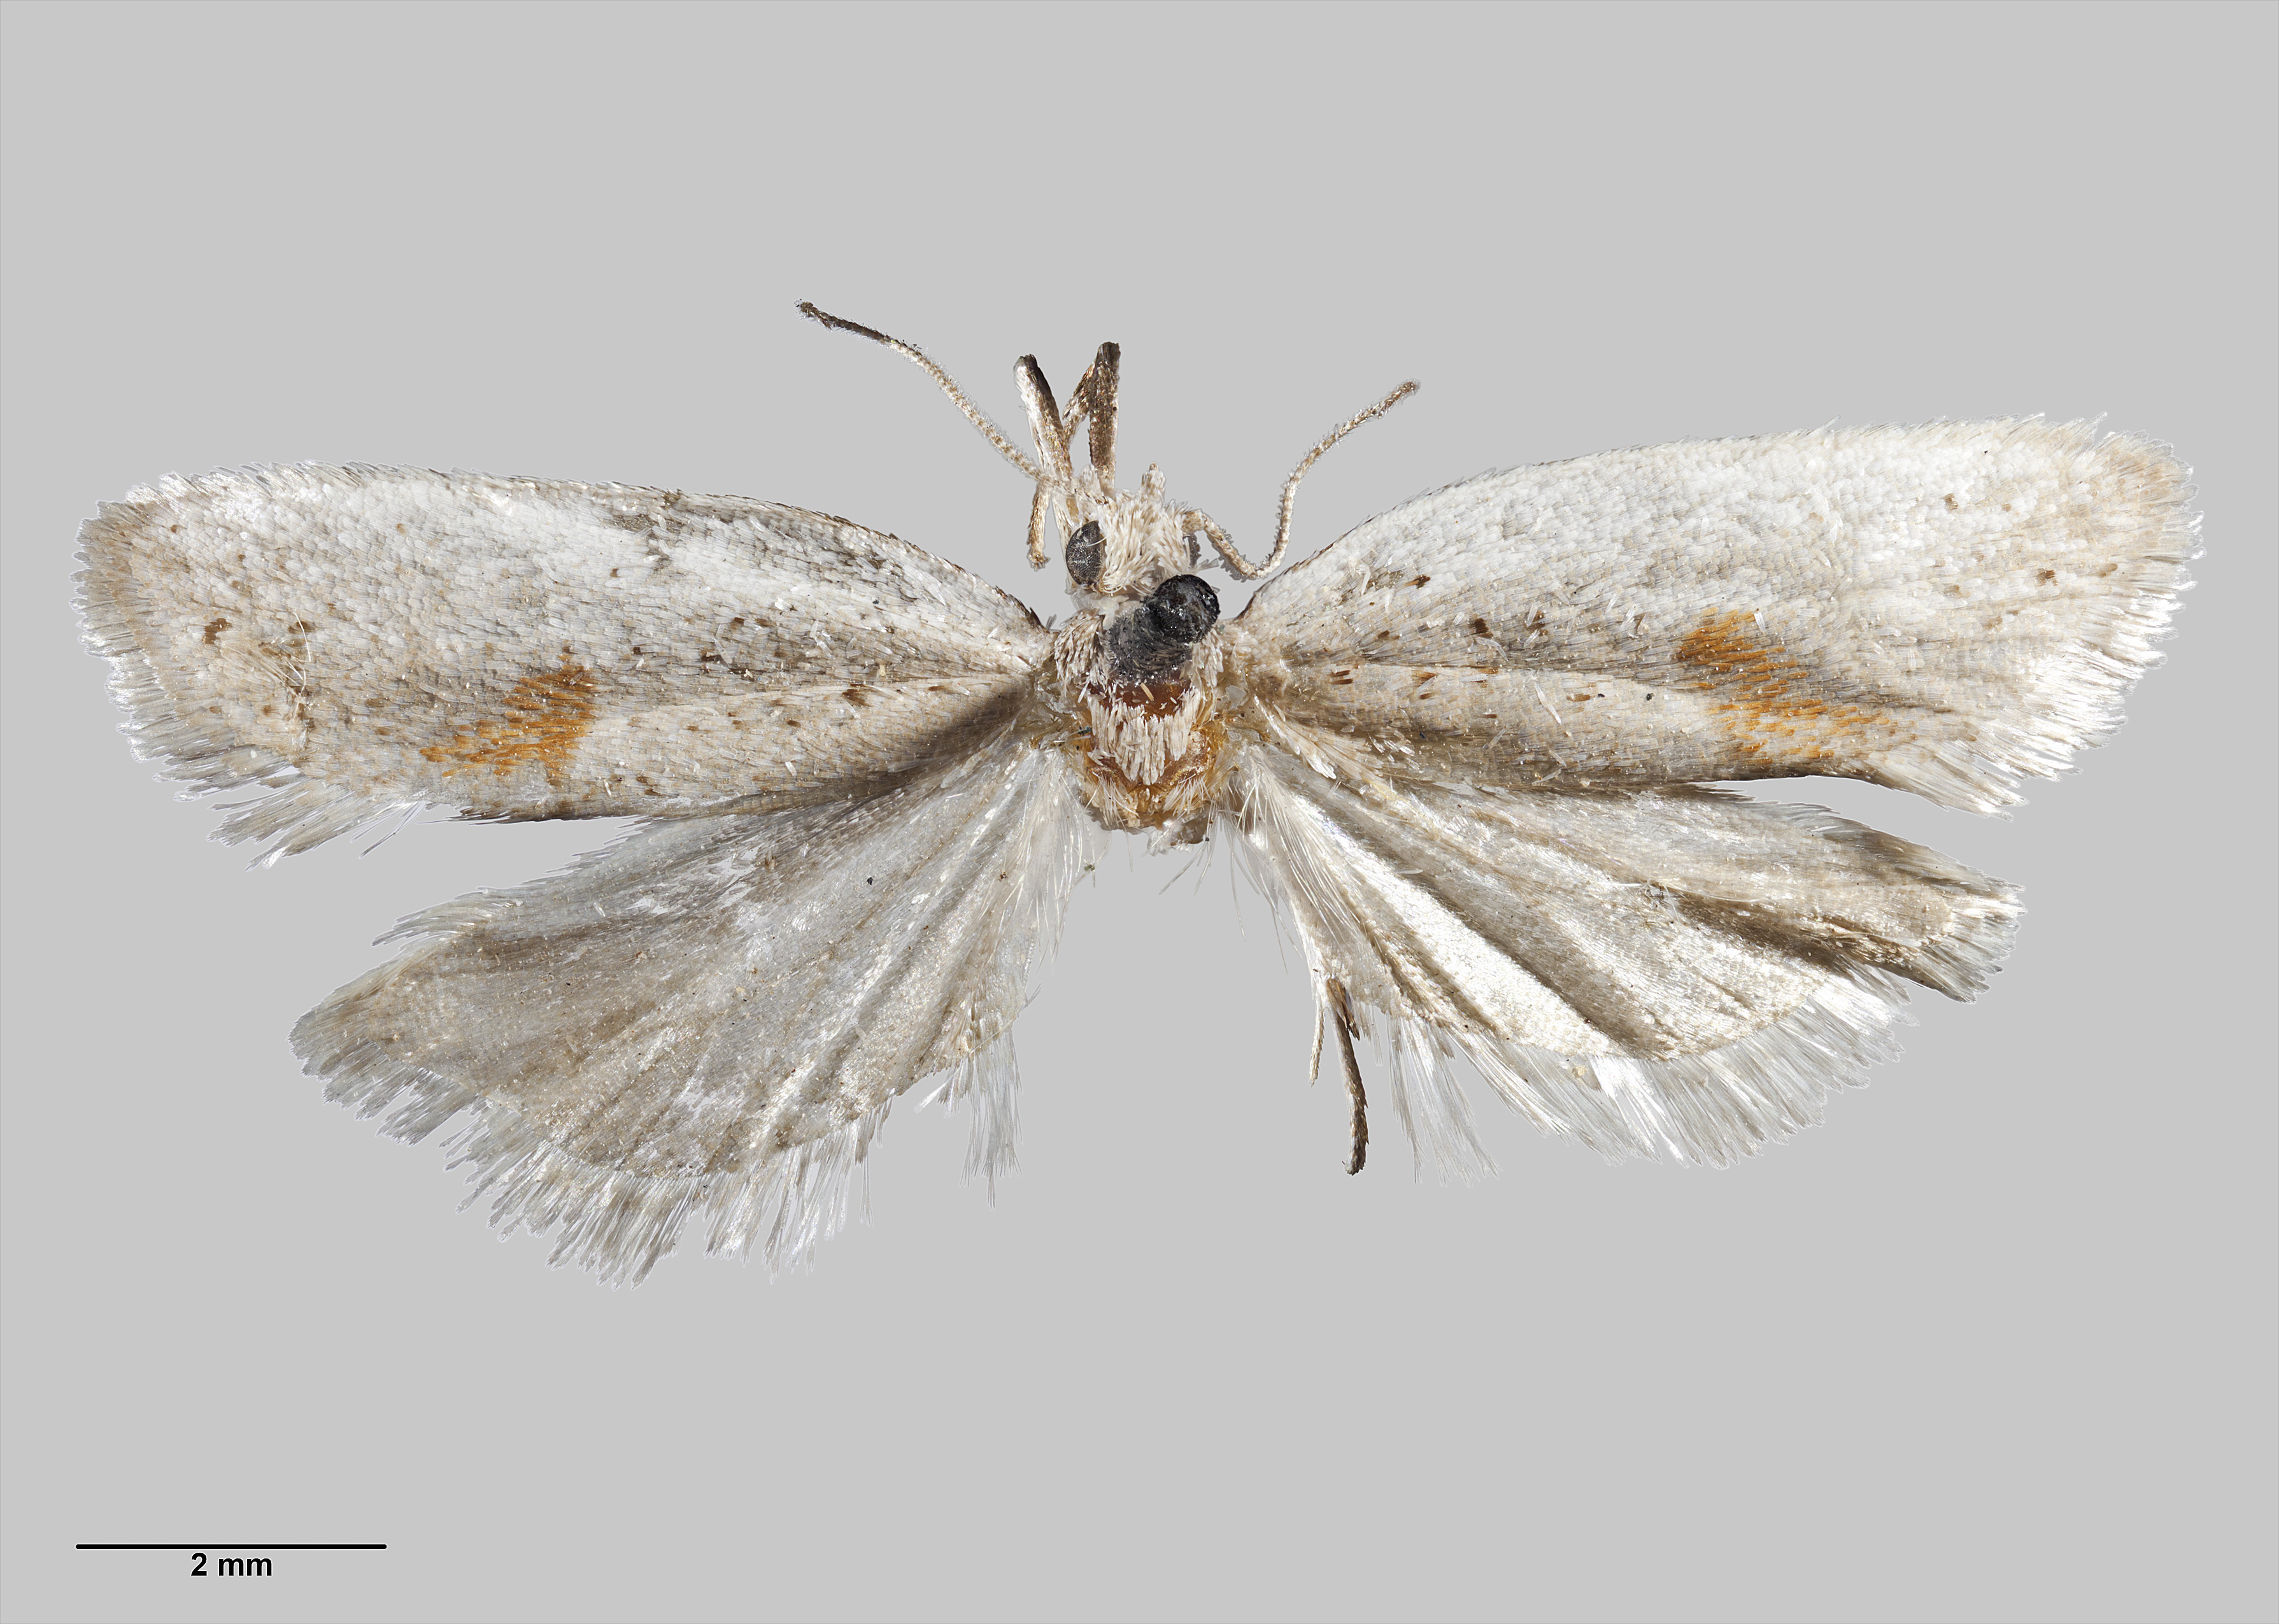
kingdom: Animalia
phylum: Arthropoda
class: Insecta
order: Lepidoptera
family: Tortricidae
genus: Ericodesma
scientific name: Ericodesma cuneata
